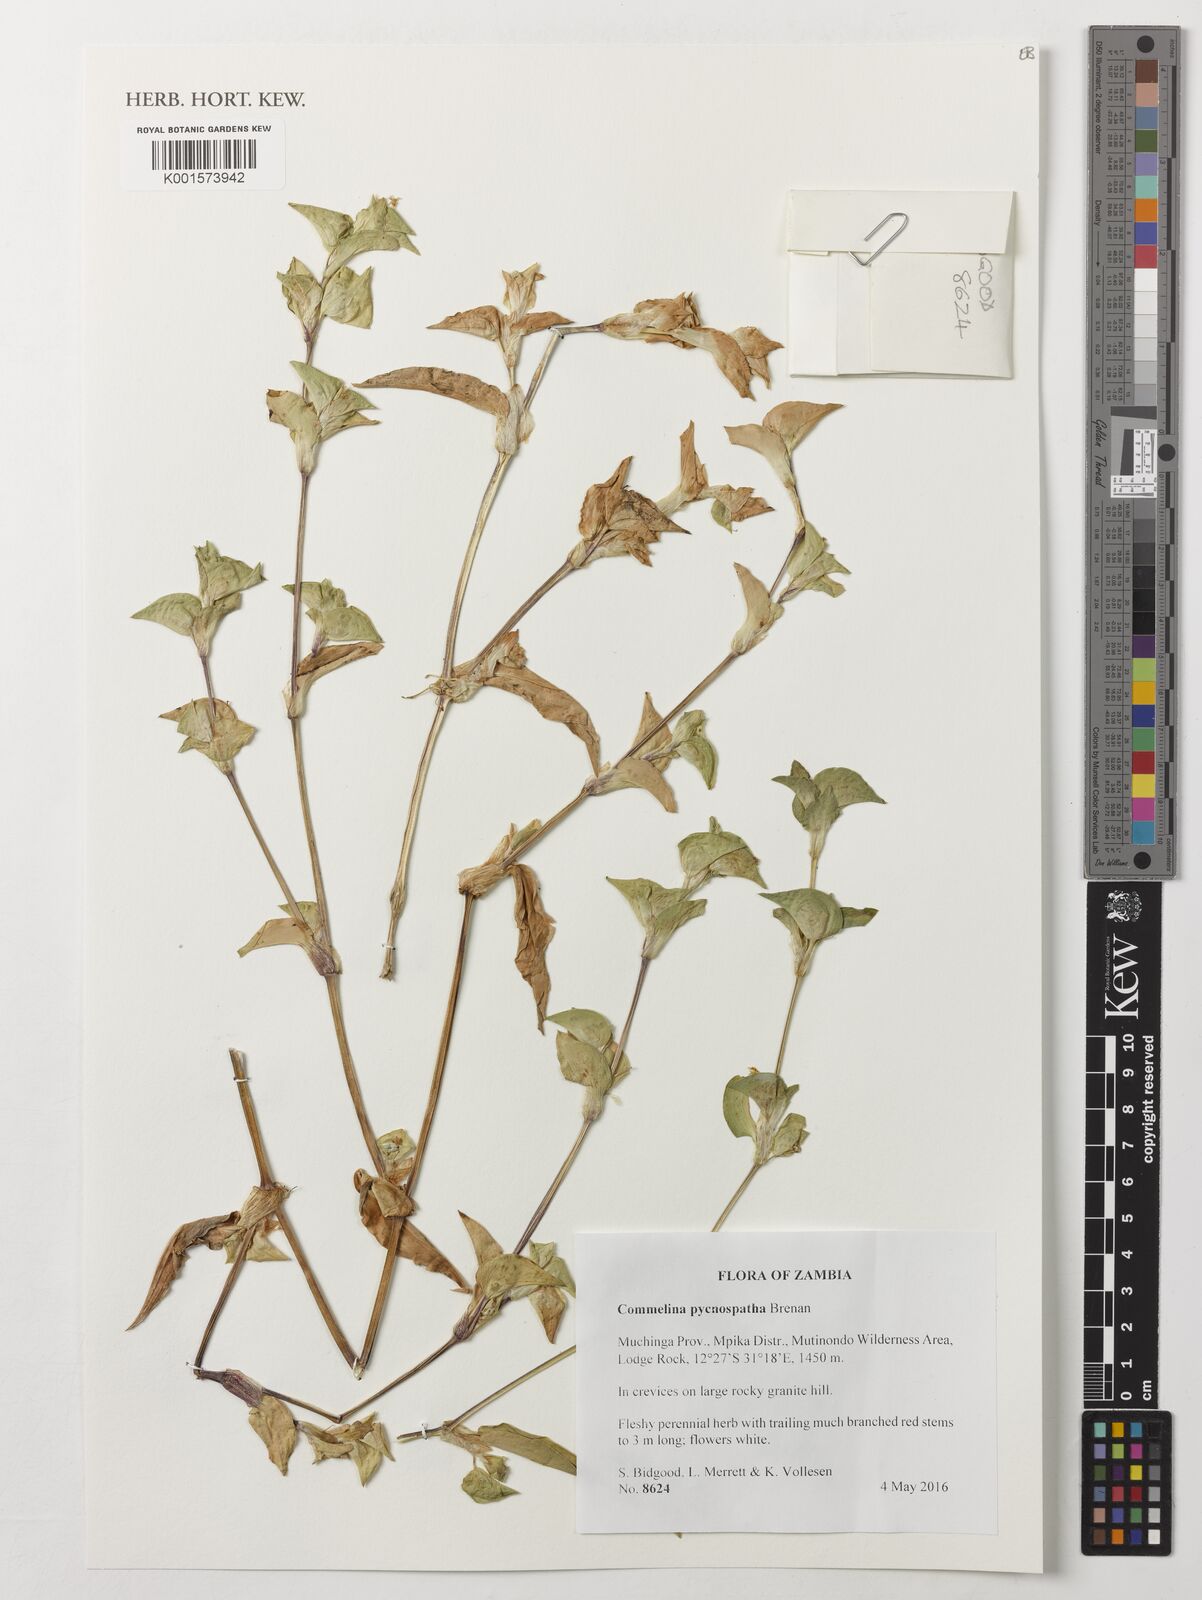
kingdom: Plantae
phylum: Tracheophyta
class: Liliopsida
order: Commelinales
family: Commelinaceae
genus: Commelina
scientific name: Commelina pycnospatha
